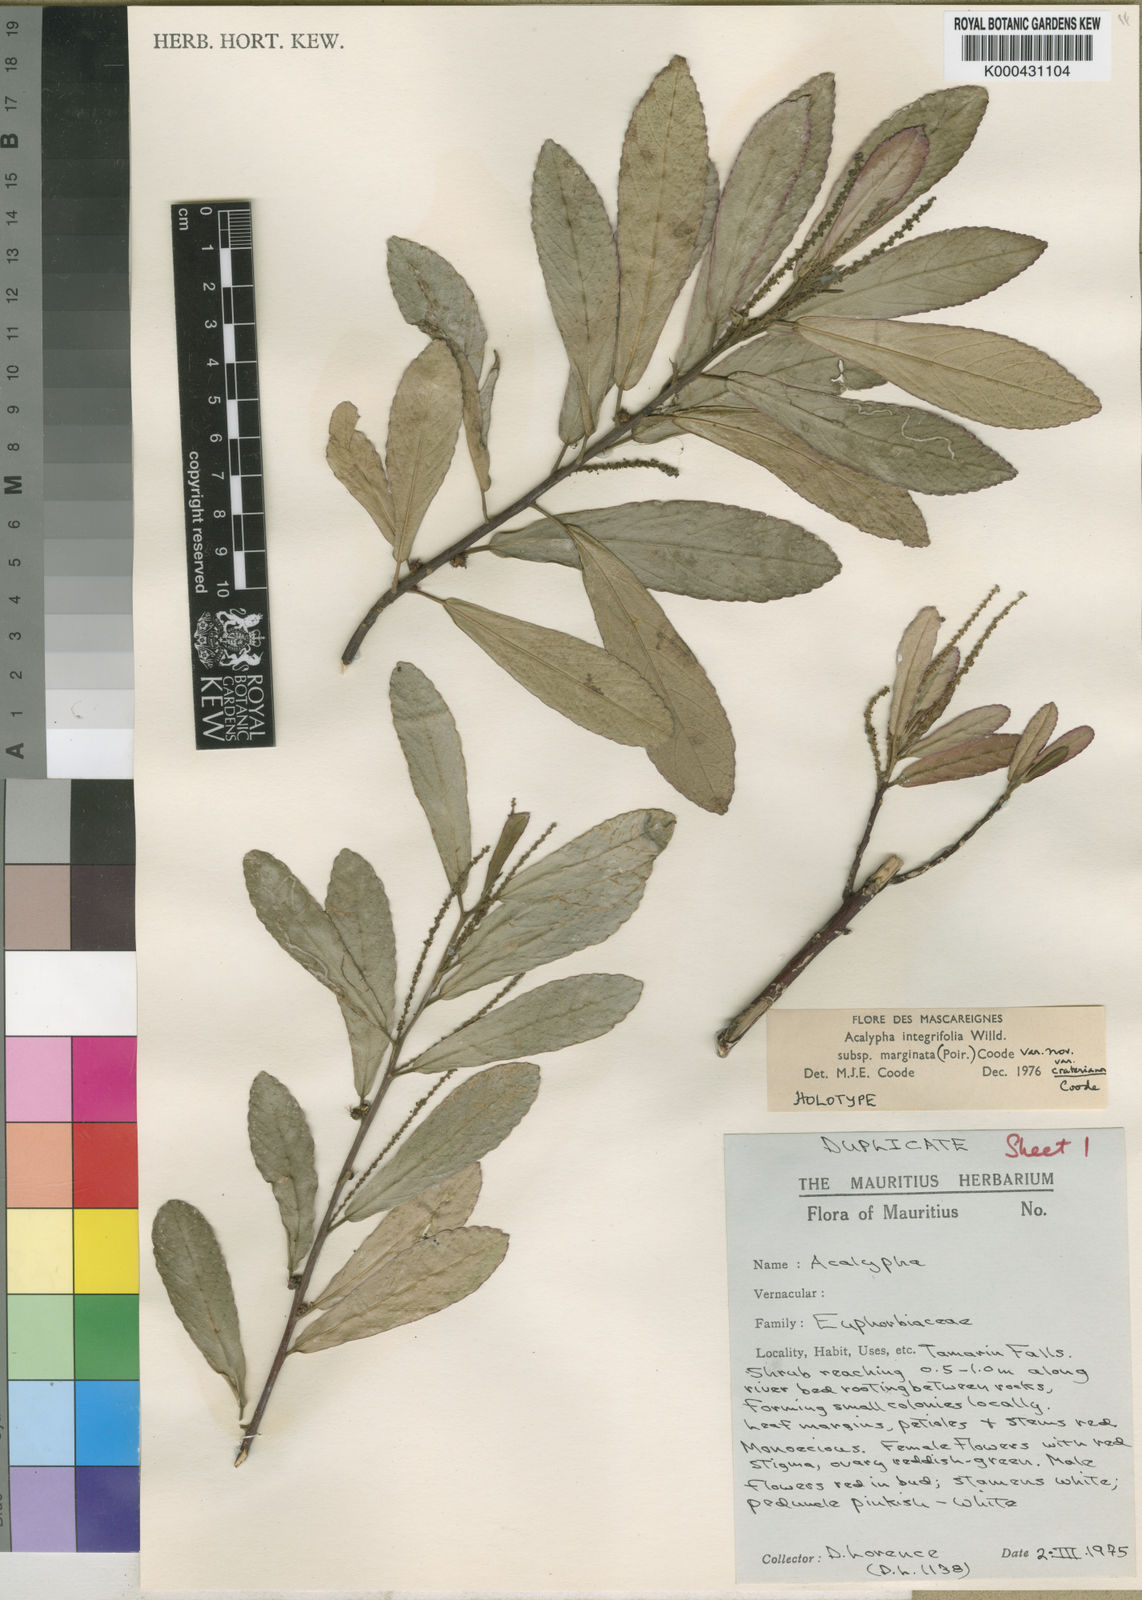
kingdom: Plantae
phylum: Tracheophyta
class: Magnoliopsida
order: Malpighiales
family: Euphorbiaceae
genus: Acalypha
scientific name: Acalypha marginata
